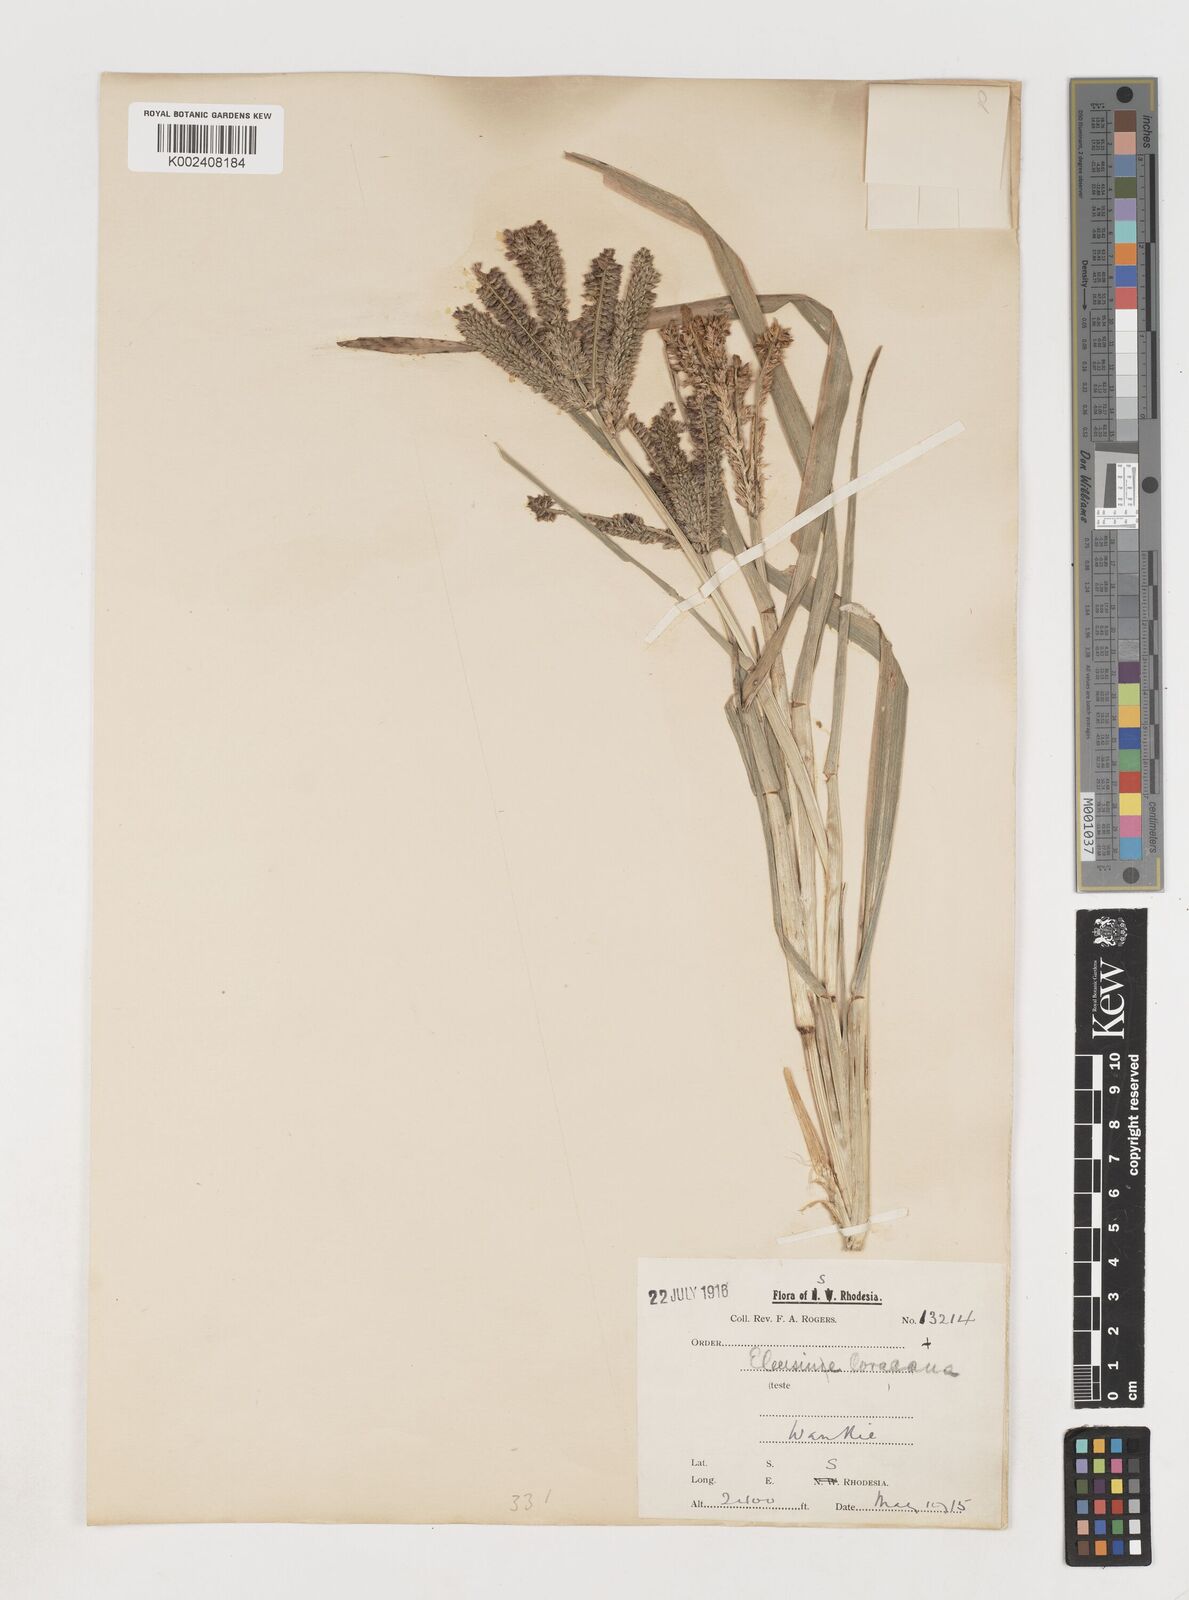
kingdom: Plantae
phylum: Tracheophyta
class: Liliopsida
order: Poales
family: Poaceae
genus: Eleusine
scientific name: Eleusine coracana
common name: Finger millet
